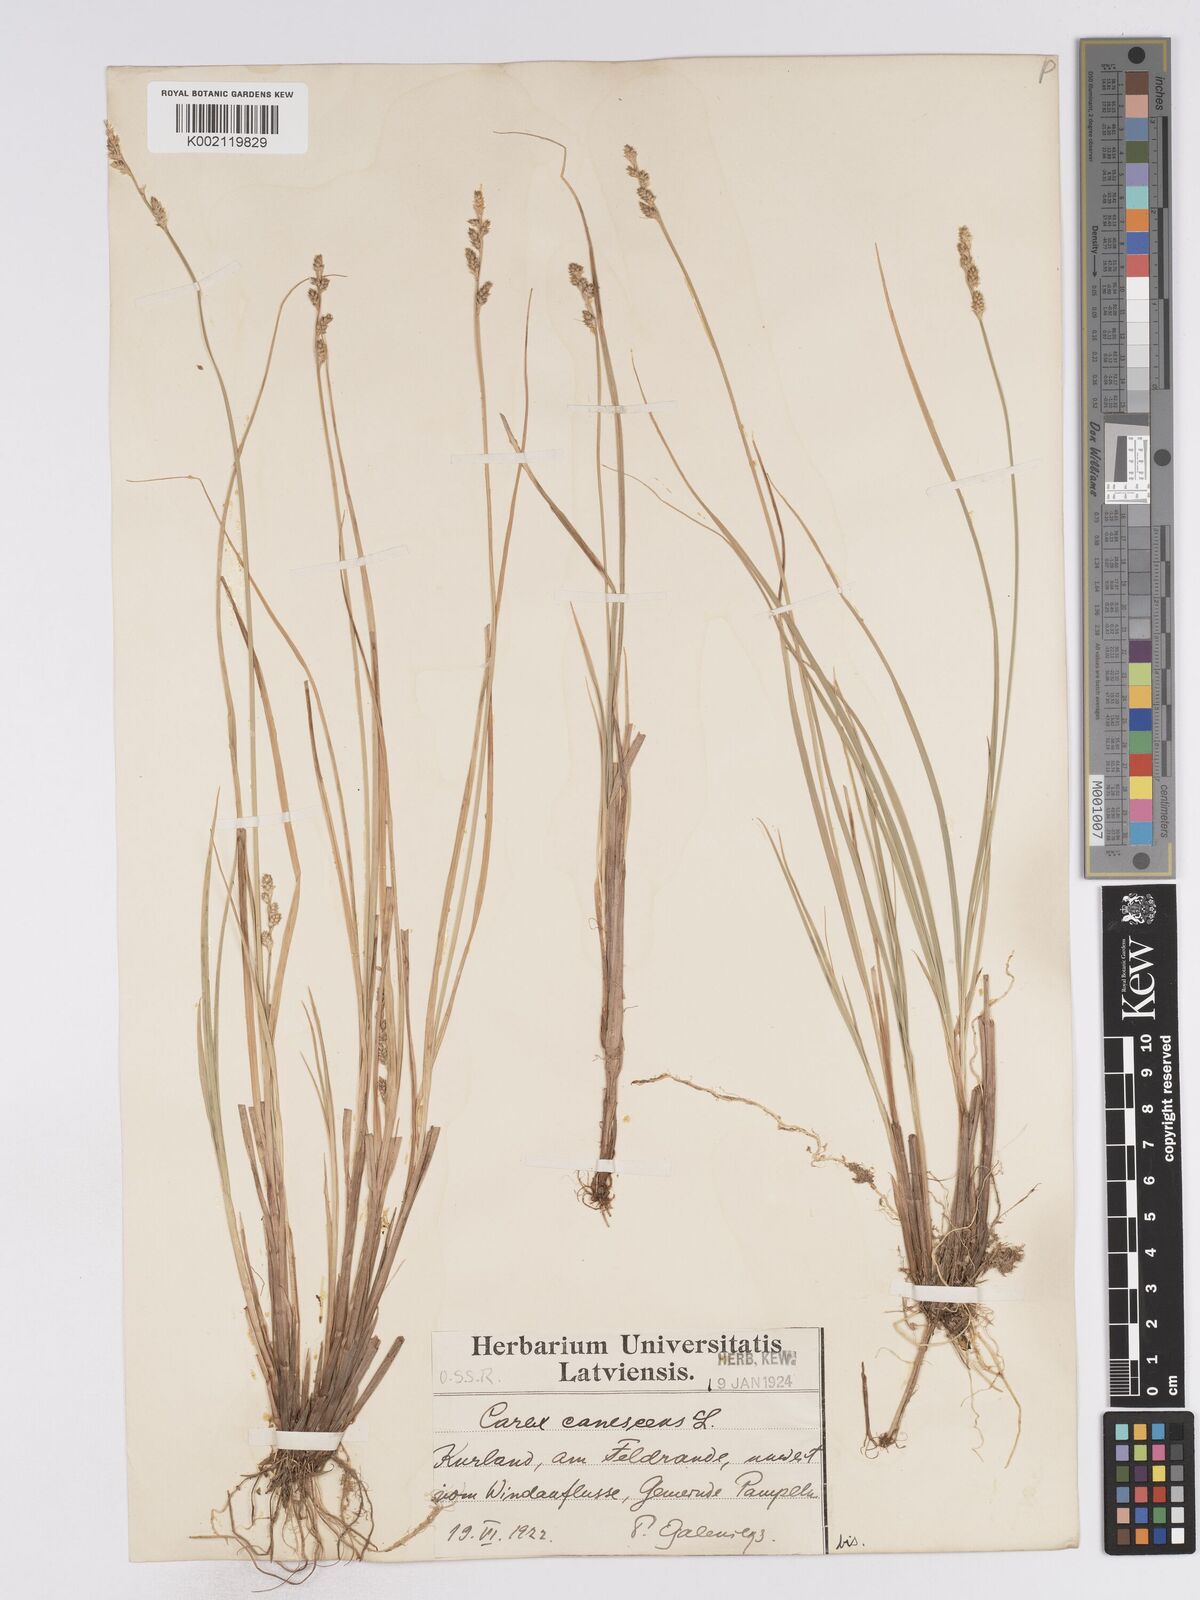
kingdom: Plantae
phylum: Tracheophyta
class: Liliopsida
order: Poales
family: Cyperaceae
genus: Carex
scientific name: Carex curta
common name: White sedge
